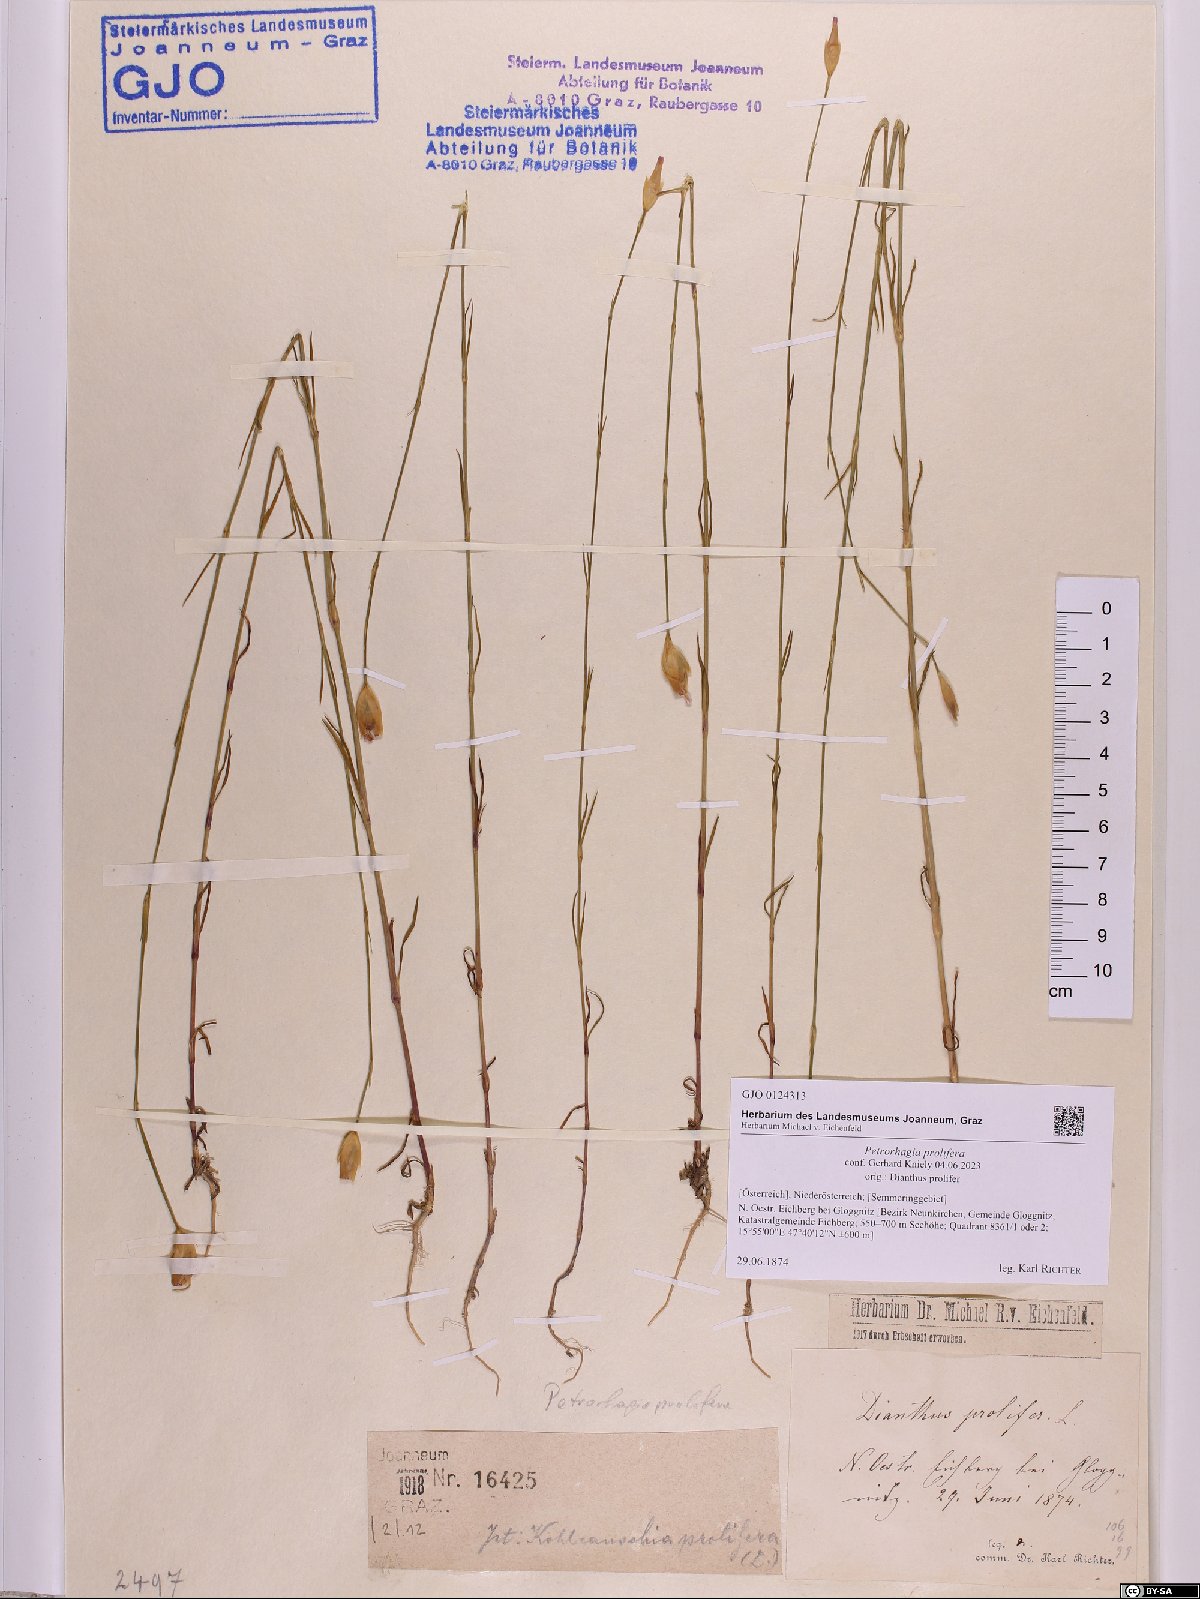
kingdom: Plantae
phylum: Tracheophyta
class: Magnoliopsida
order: Caryophyllales
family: Caryophyllaceae
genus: Petrorhagia
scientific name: Petrorhagia prolifera
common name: Proliferous pink
